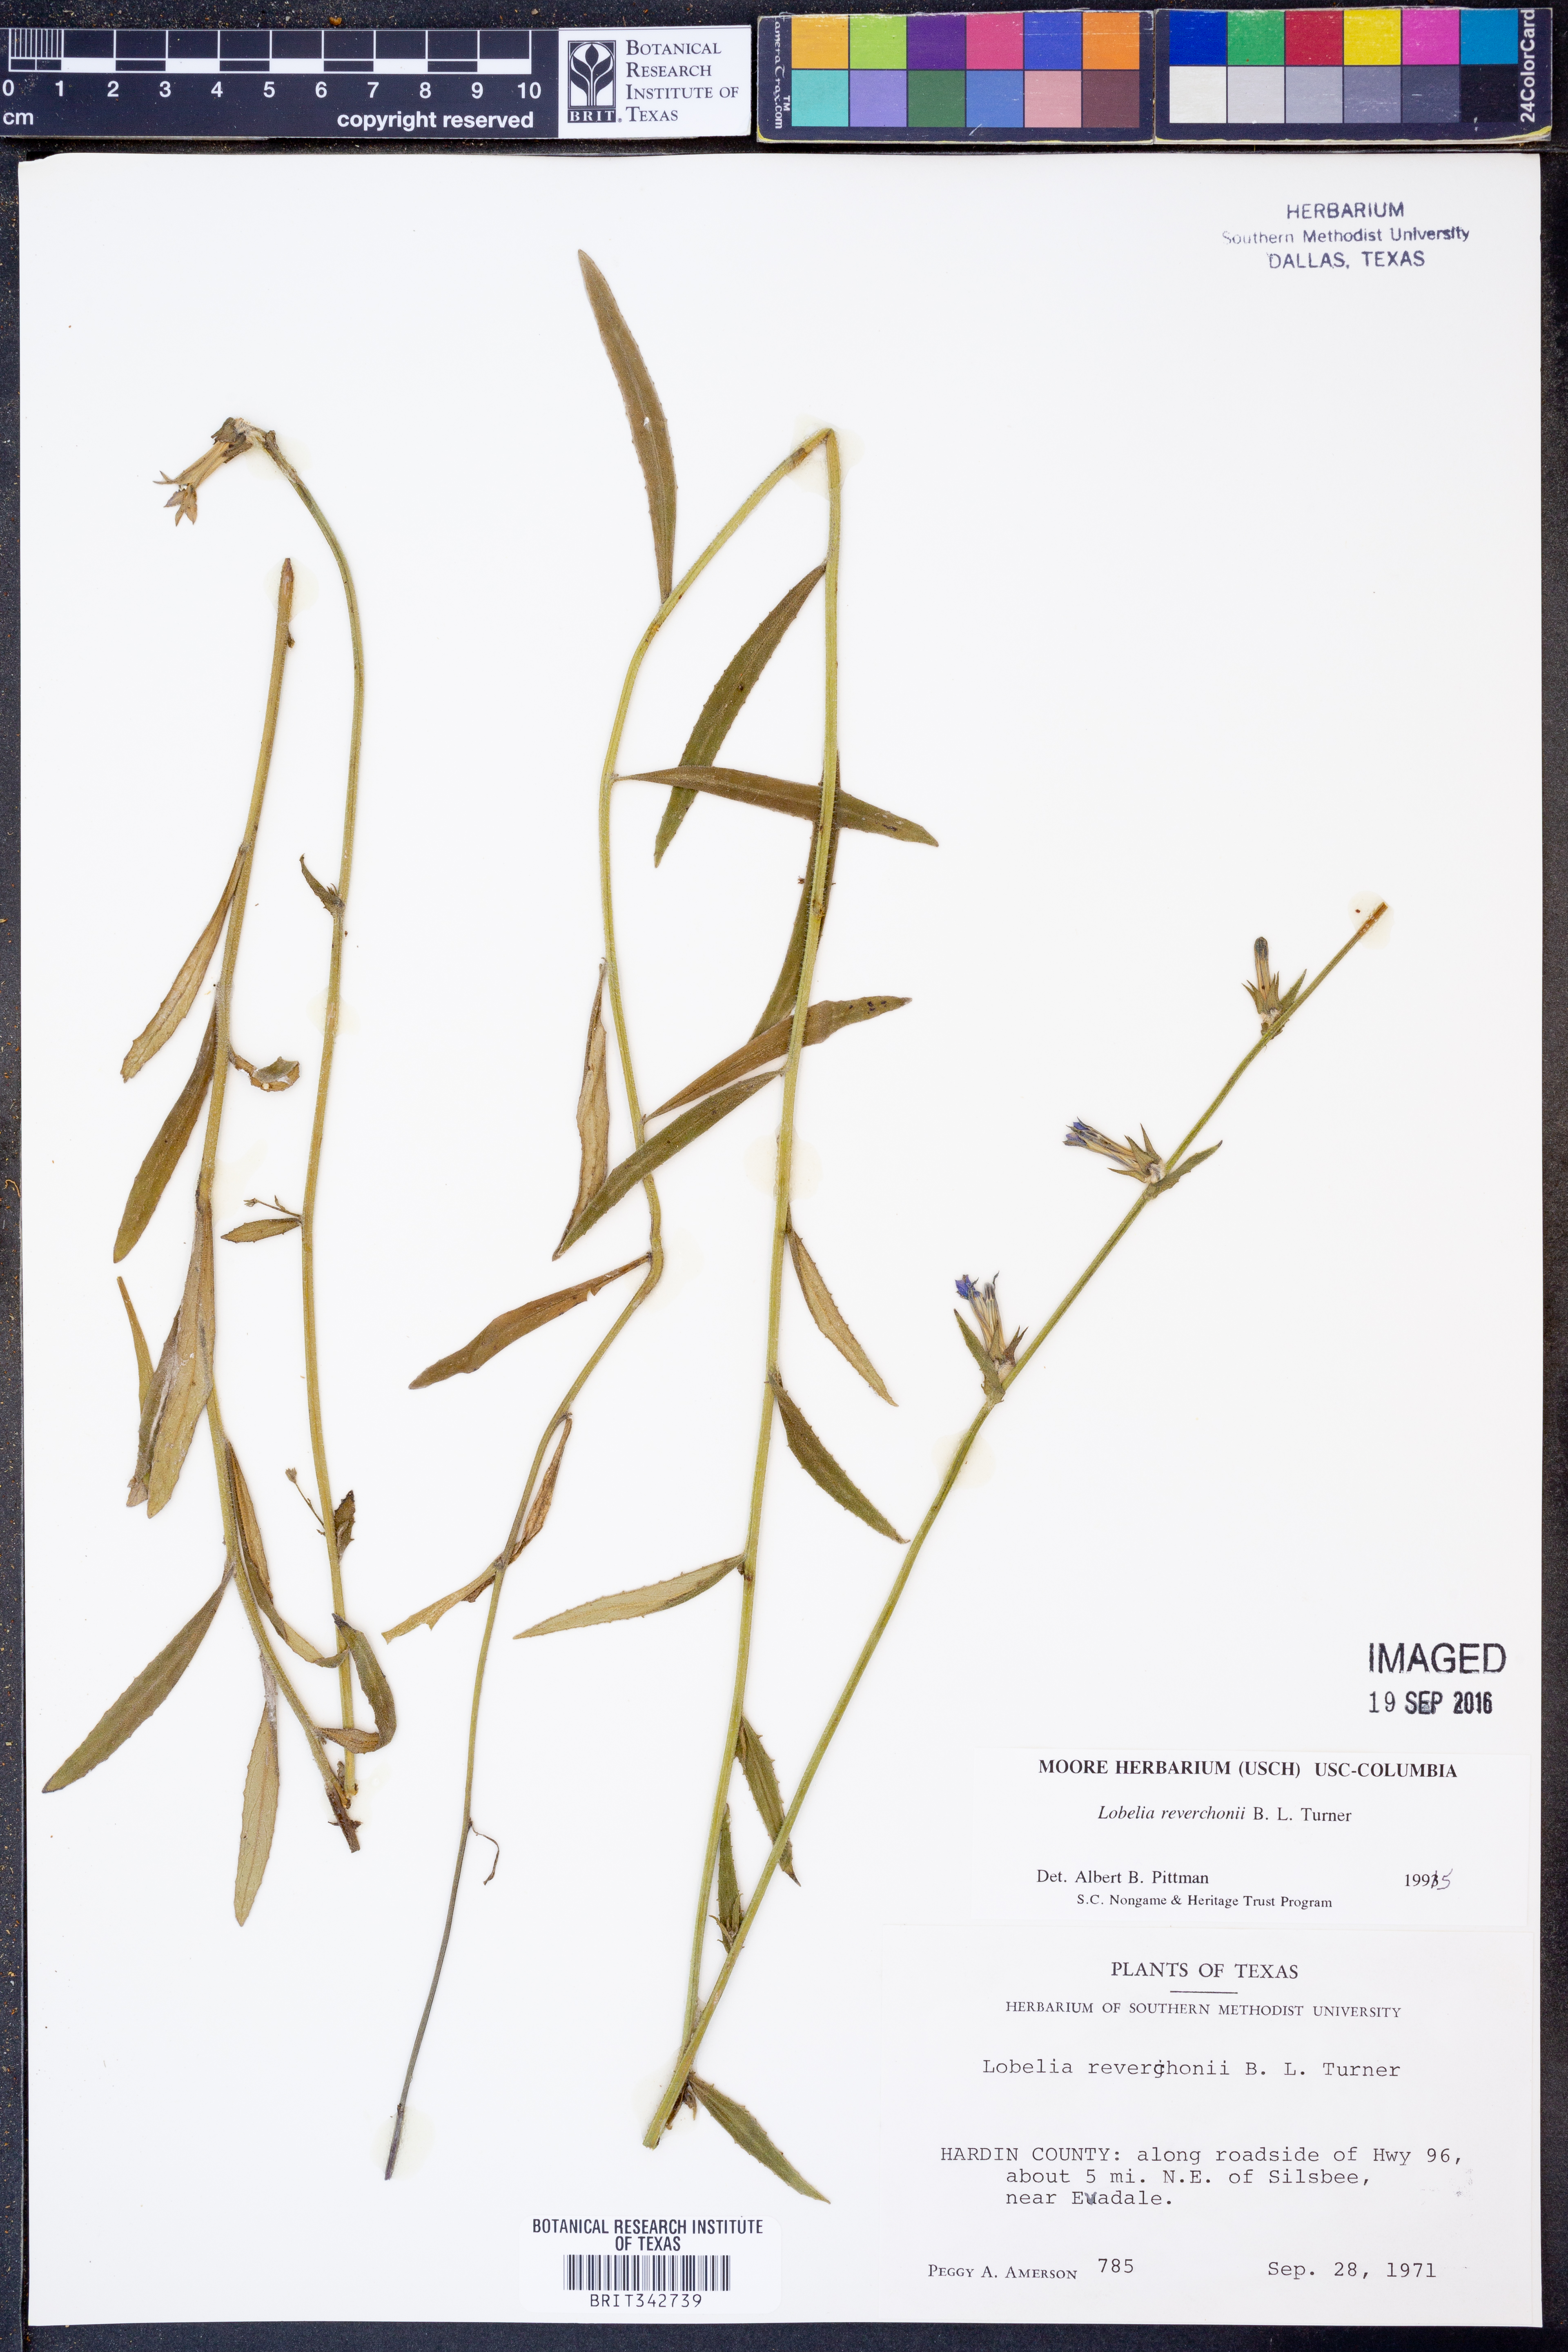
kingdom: Plantae
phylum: Tracheophyta
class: Magnoliopsida
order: Asterales
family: Campanulaceae
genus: Lobelia
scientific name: Lobelia reverchonii
